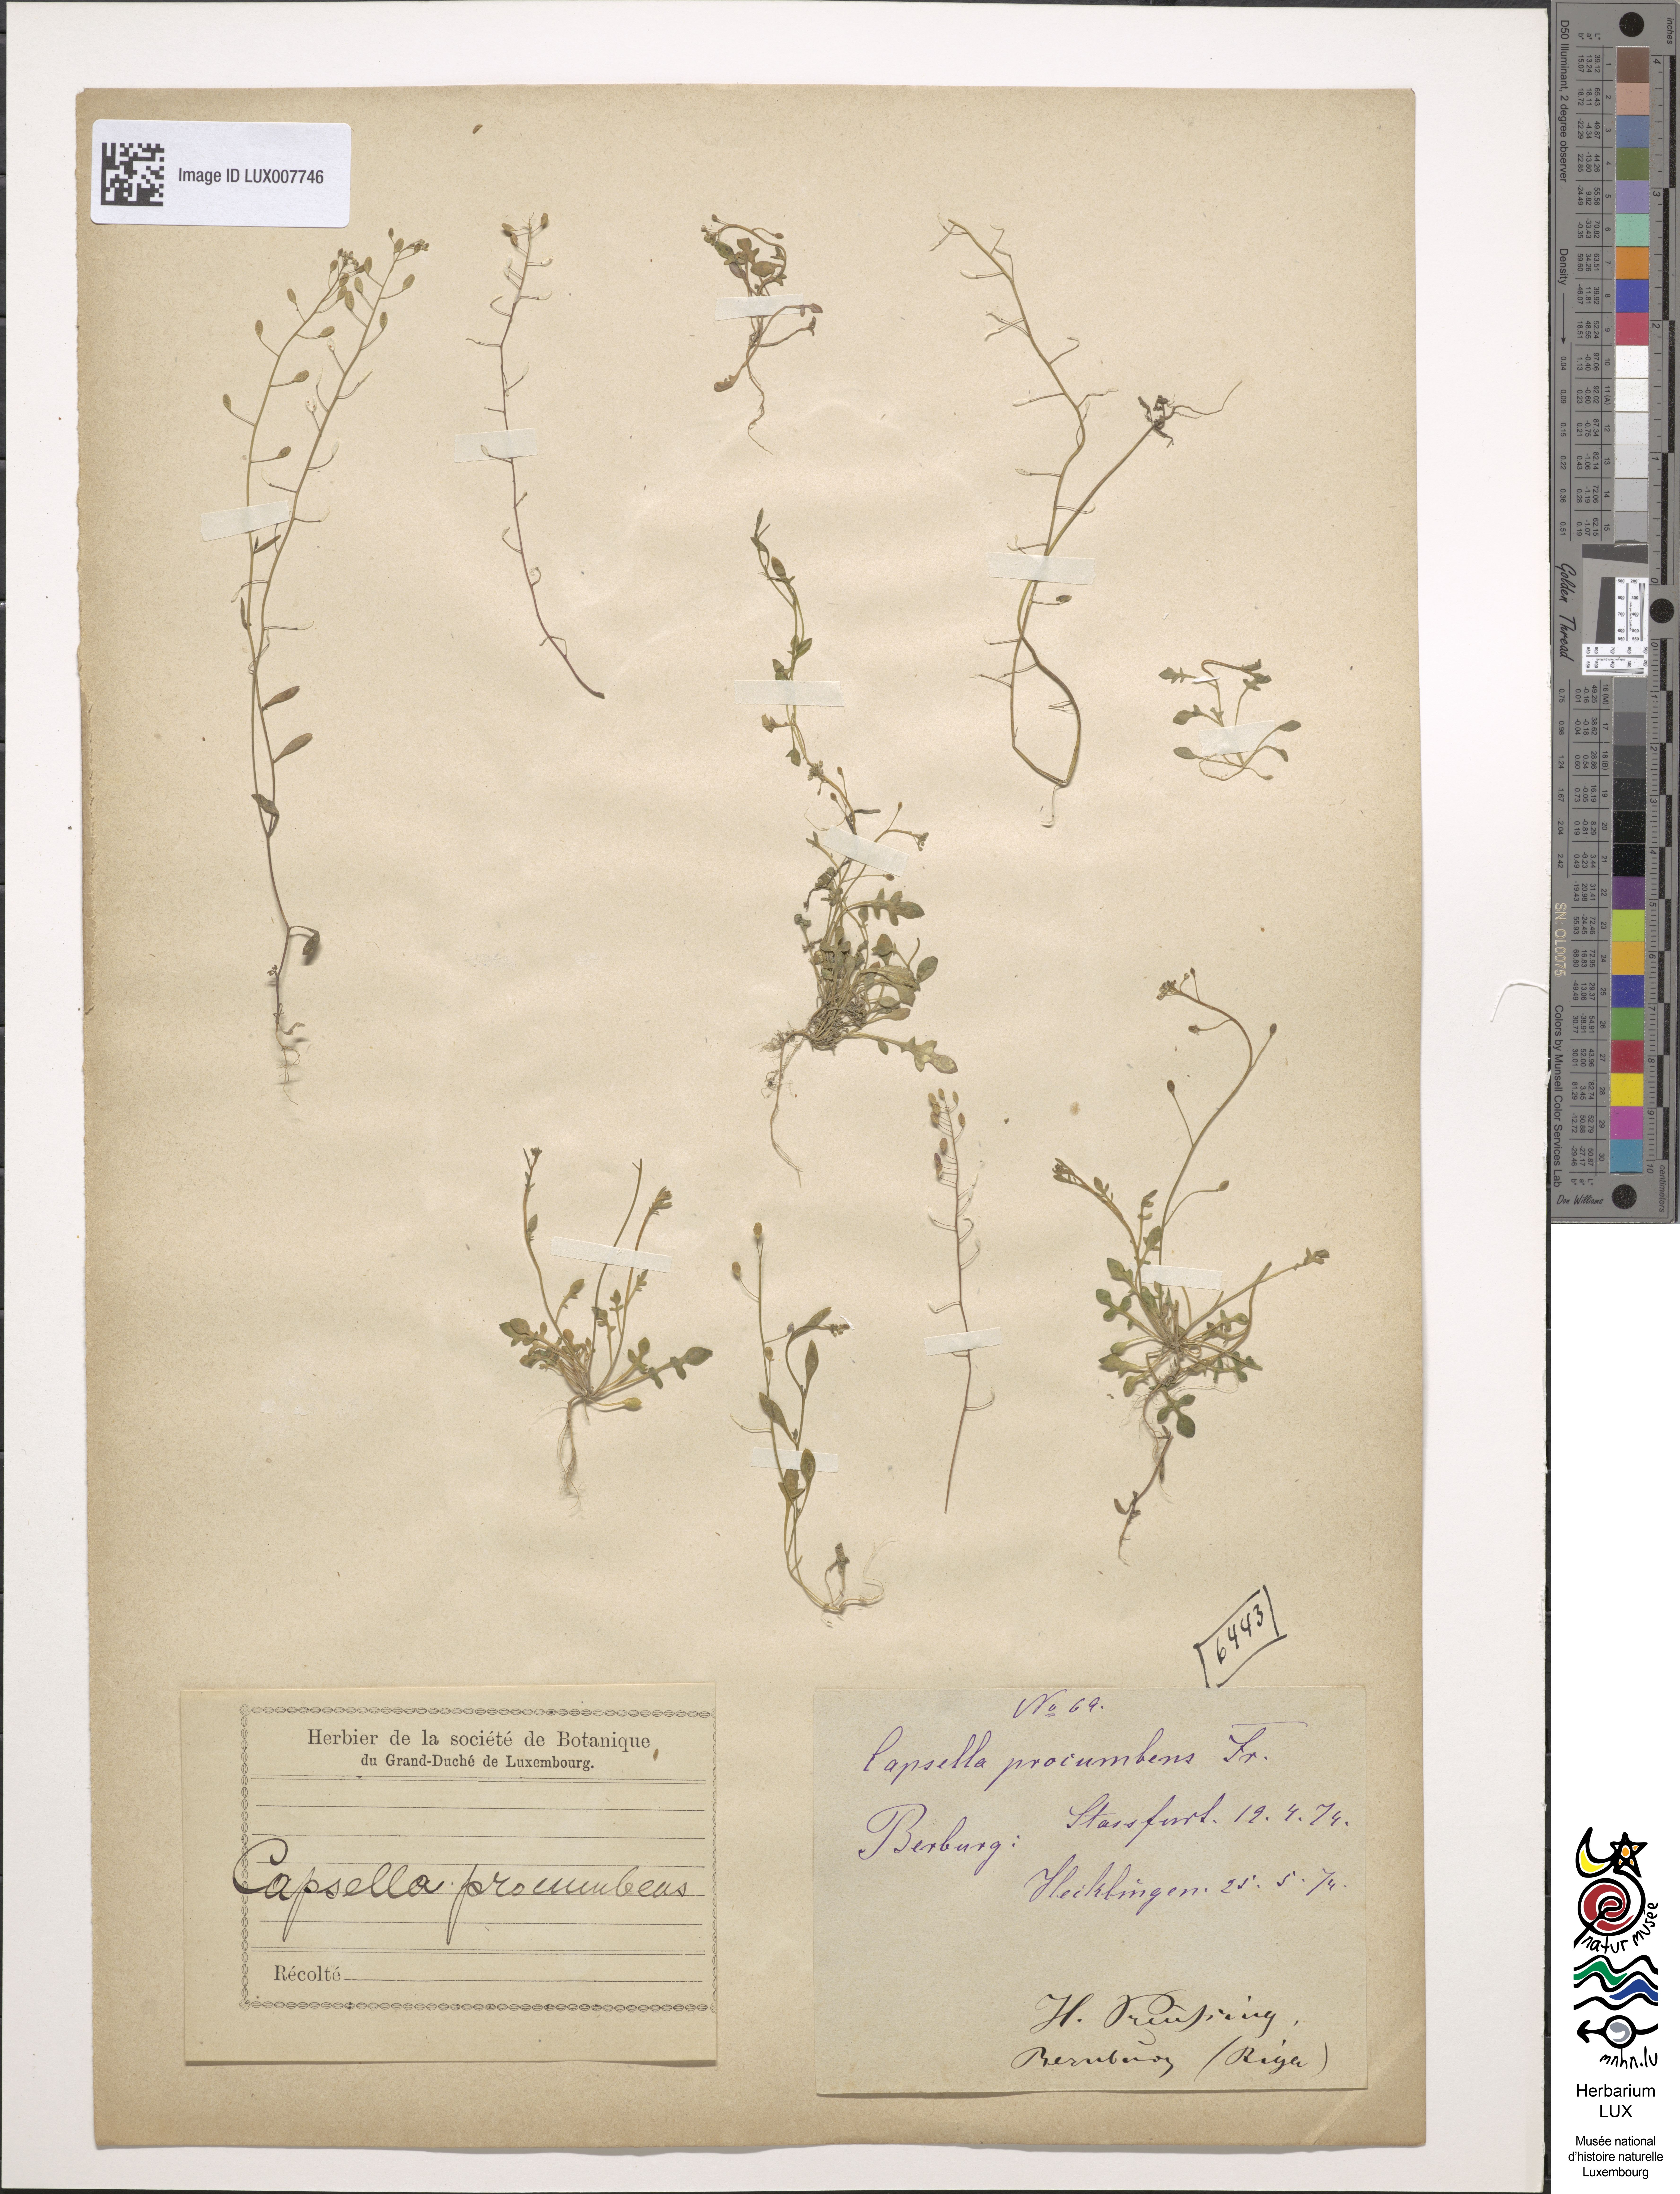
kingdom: Plantae
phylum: Tracheophyta
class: Magnoliopsida
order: Brassicales
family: Brassicaceae
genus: Hornungia
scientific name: Hornungia procumbens
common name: Oval purse
